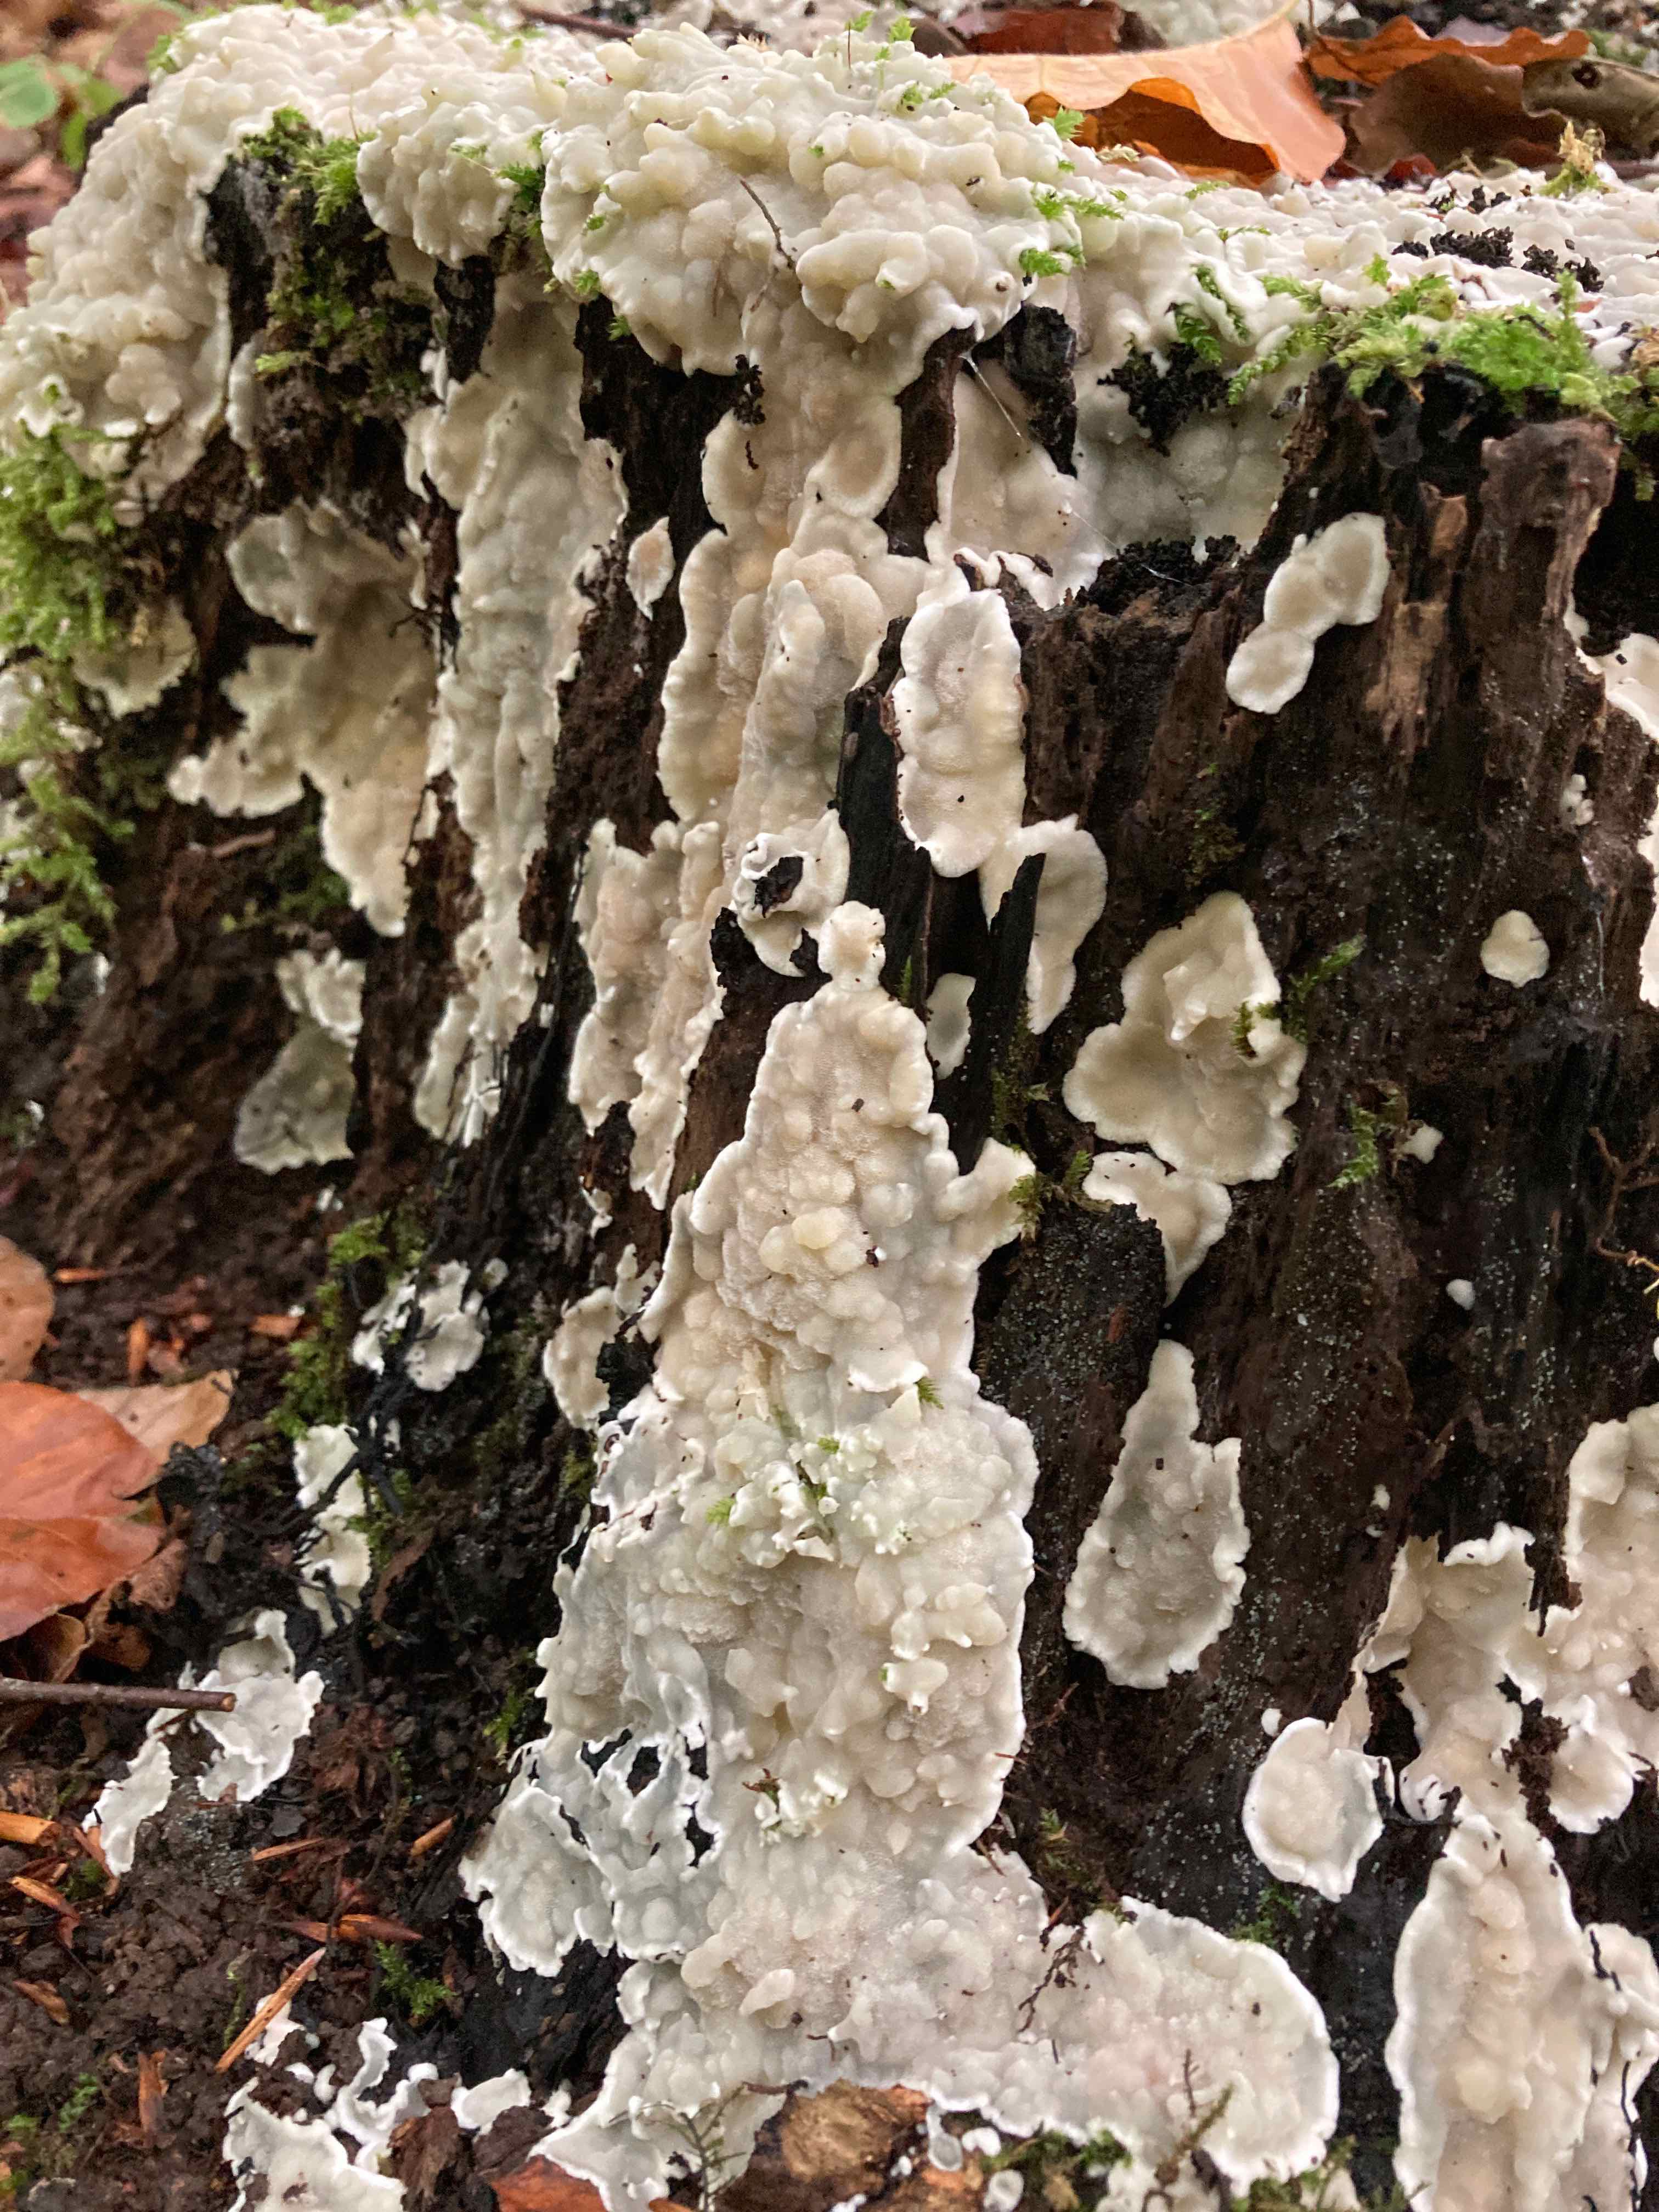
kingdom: Fungi
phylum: Basidiomycota
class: Agaricomycetes
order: Polyporales
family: Meruliaceae
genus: Physisporinus
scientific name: Physisporinus vitreus
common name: mastesvamp
